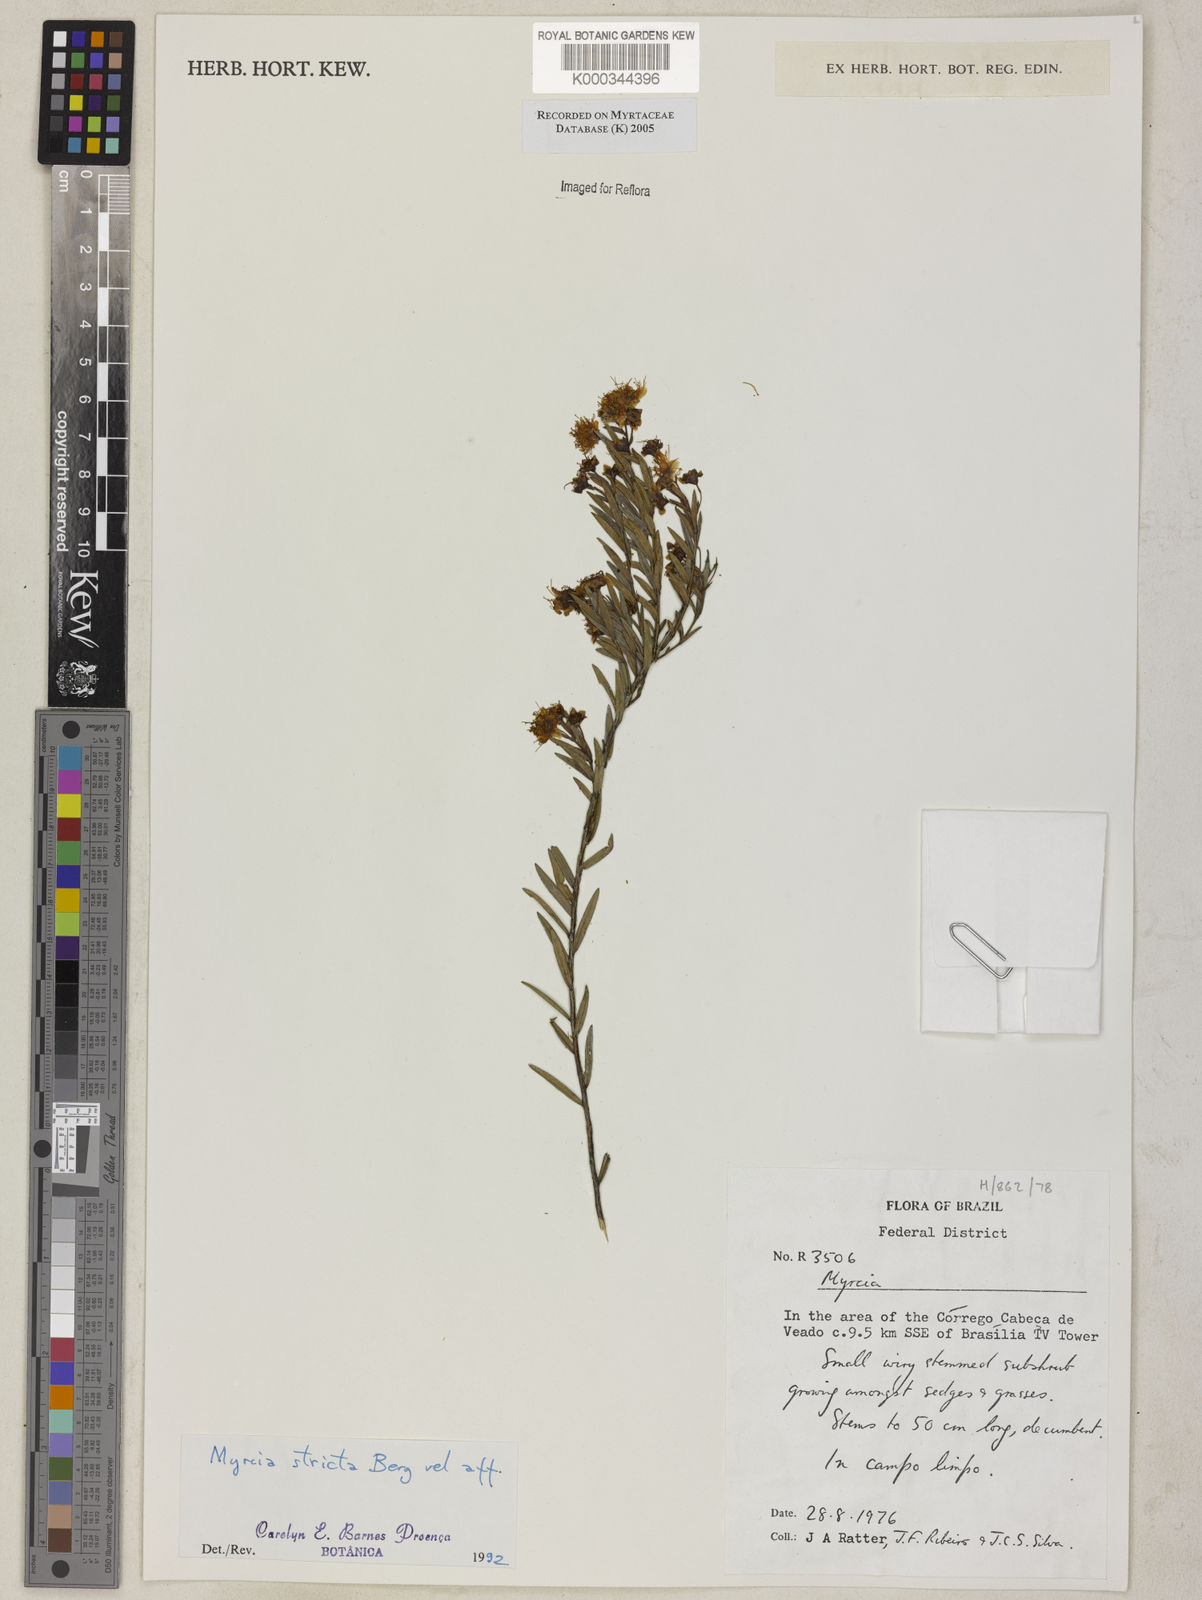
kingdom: Plantae
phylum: Tracheophyta
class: Magnoliopsida
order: Myrtales
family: Myrtaceae
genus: Myrcia
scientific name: Myrcia stricta
